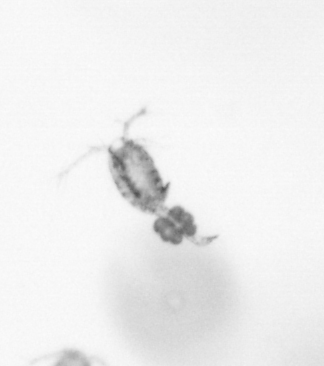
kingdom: Animalia
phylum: Arthropoda
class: Copepoda
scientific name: Copepoda
